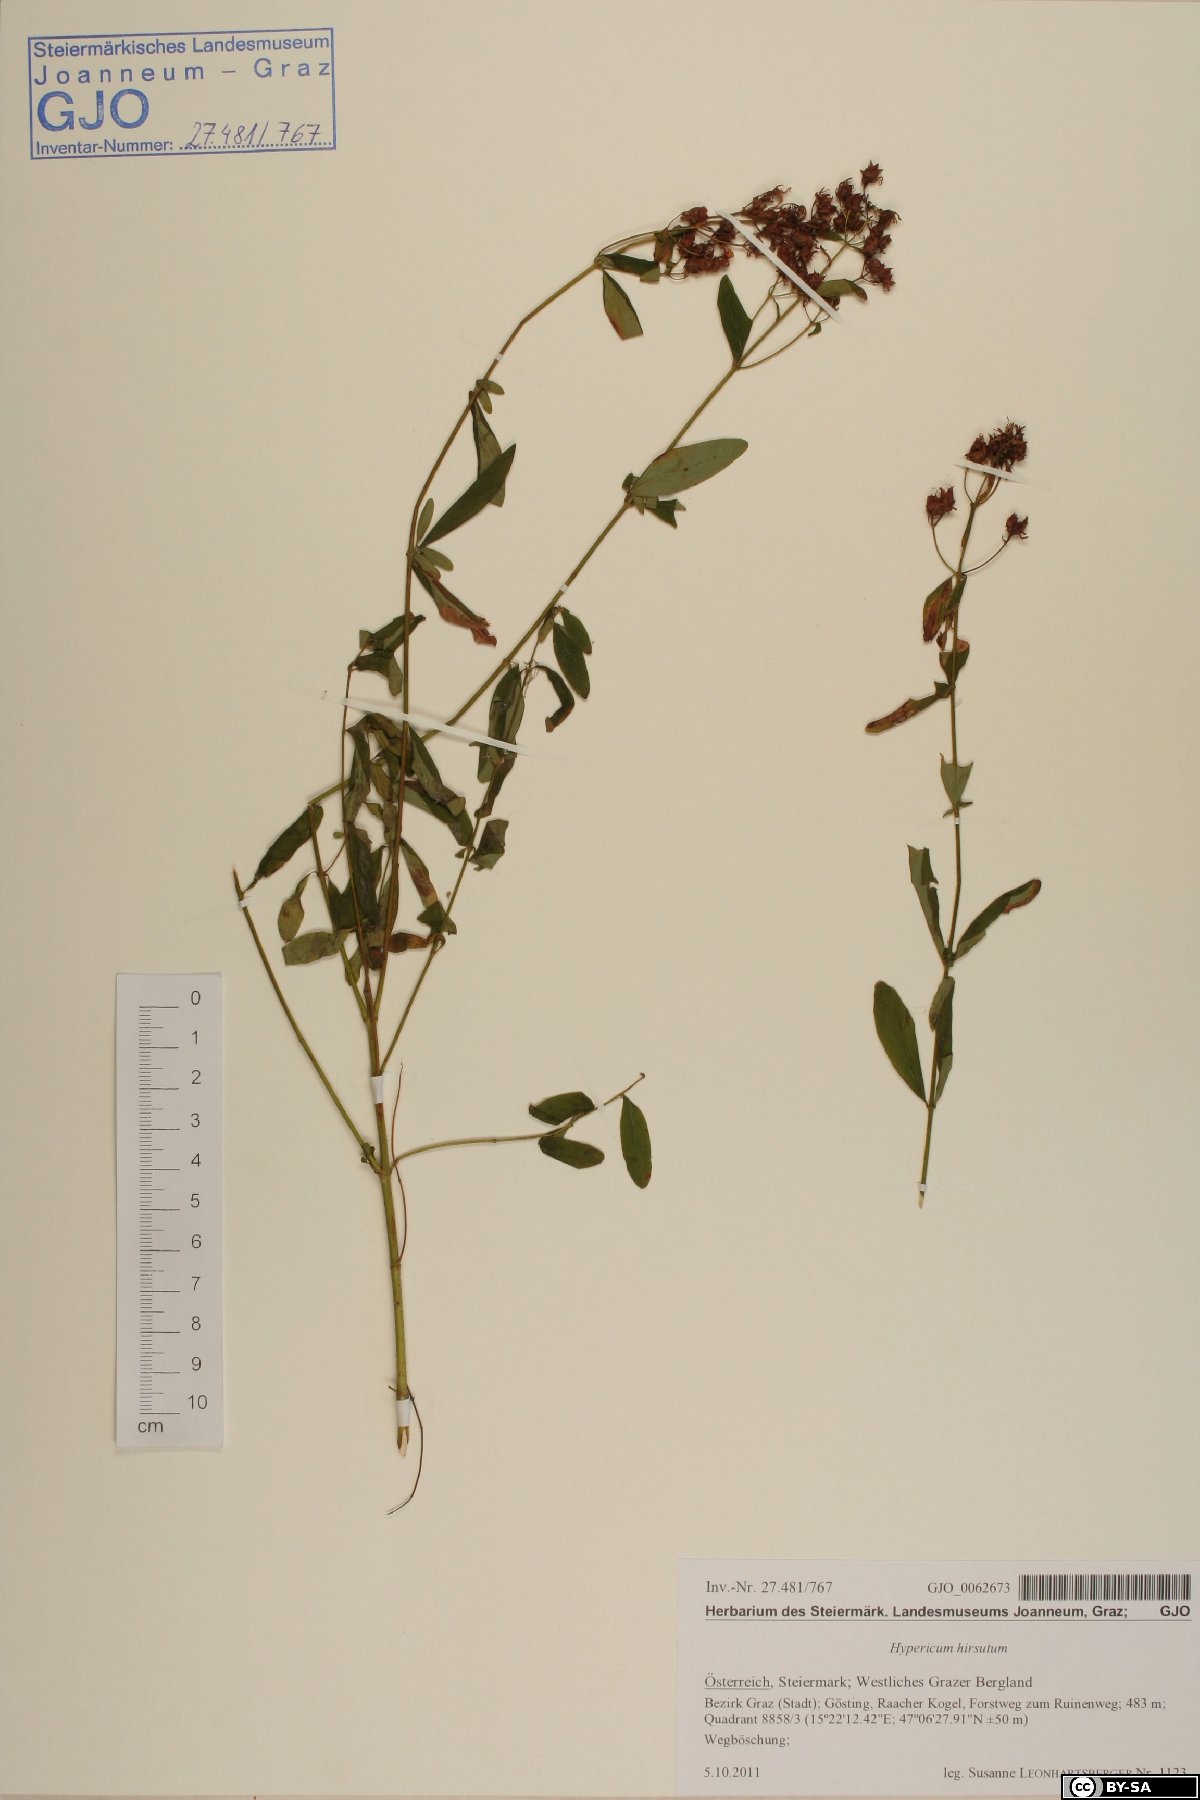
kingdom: Plantae
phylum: Tracheophyta
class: Magnoliopsida
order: Malpighiales
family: Hypericaceae
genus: Hypericum
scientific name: Hypericum hirsutum
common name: Hairy st. john's-wort
